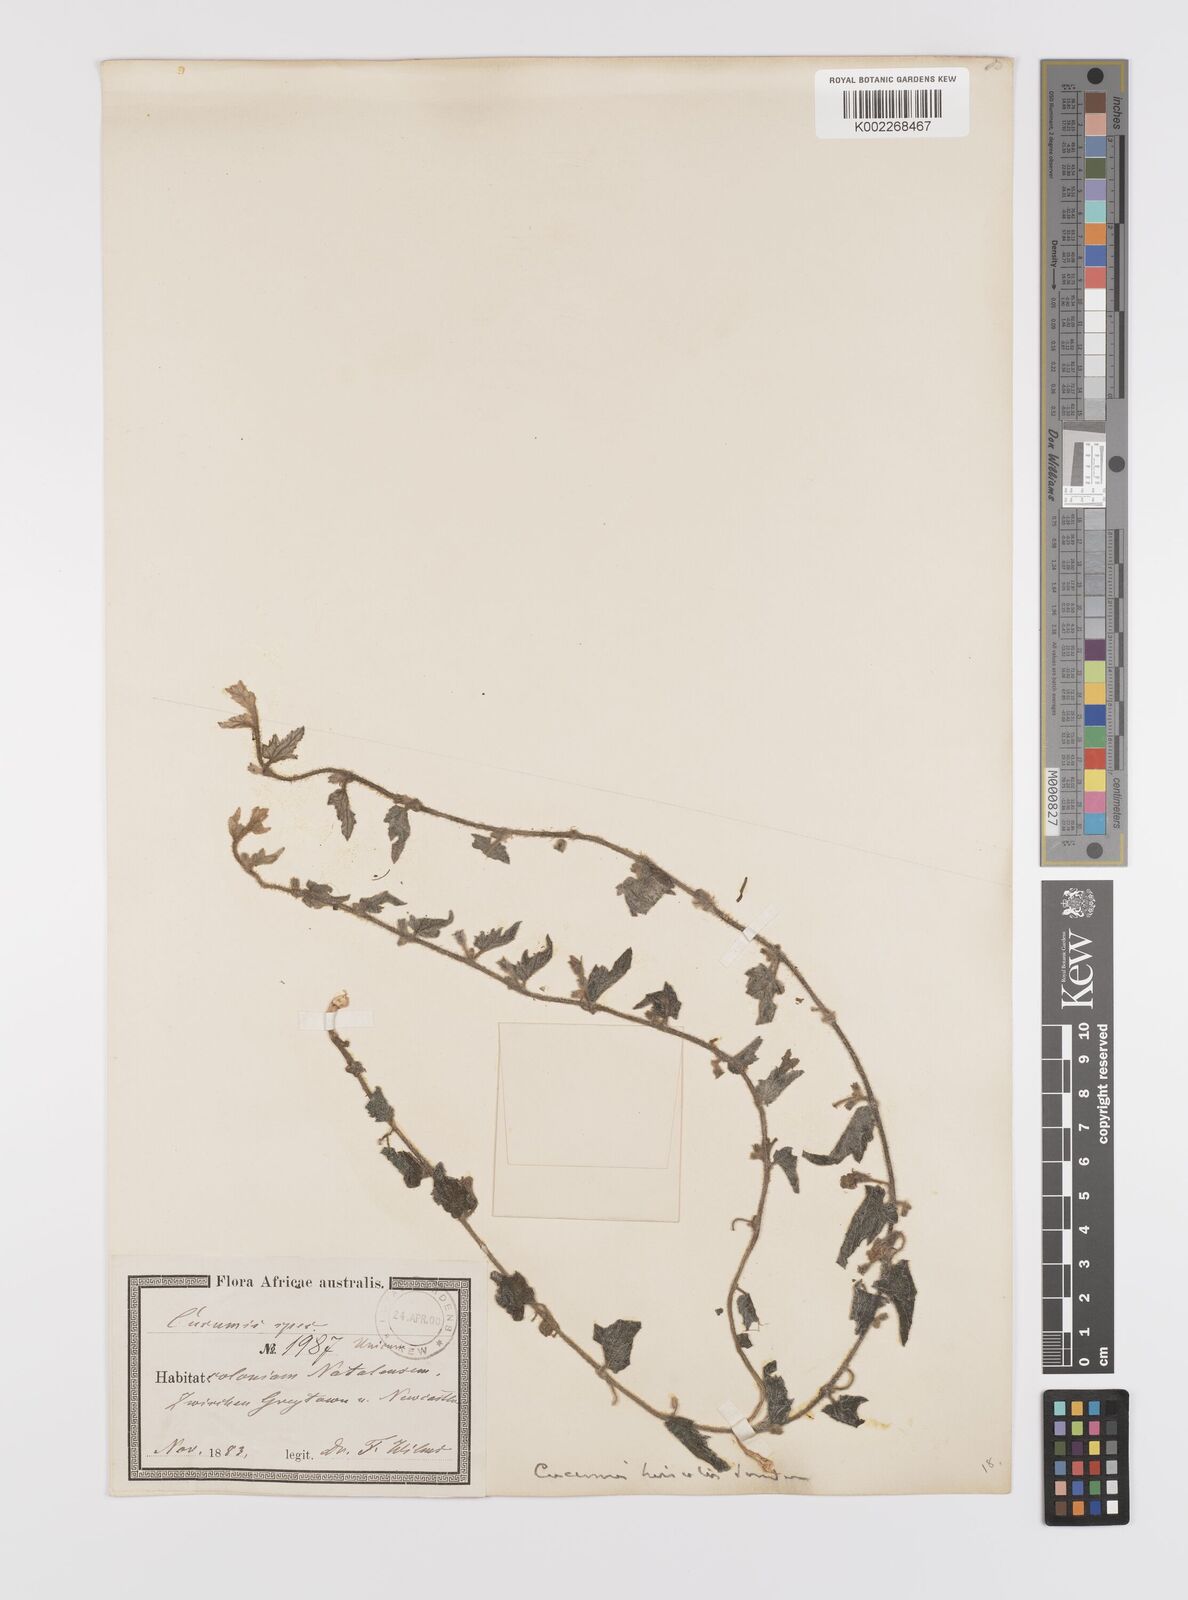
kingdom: Plantae
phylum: Tracheophyta
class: Magnoliopsida
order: Cucurbitales
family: Cucurbitaceae
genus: Cucumis
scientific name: Cucumis hirsutus
